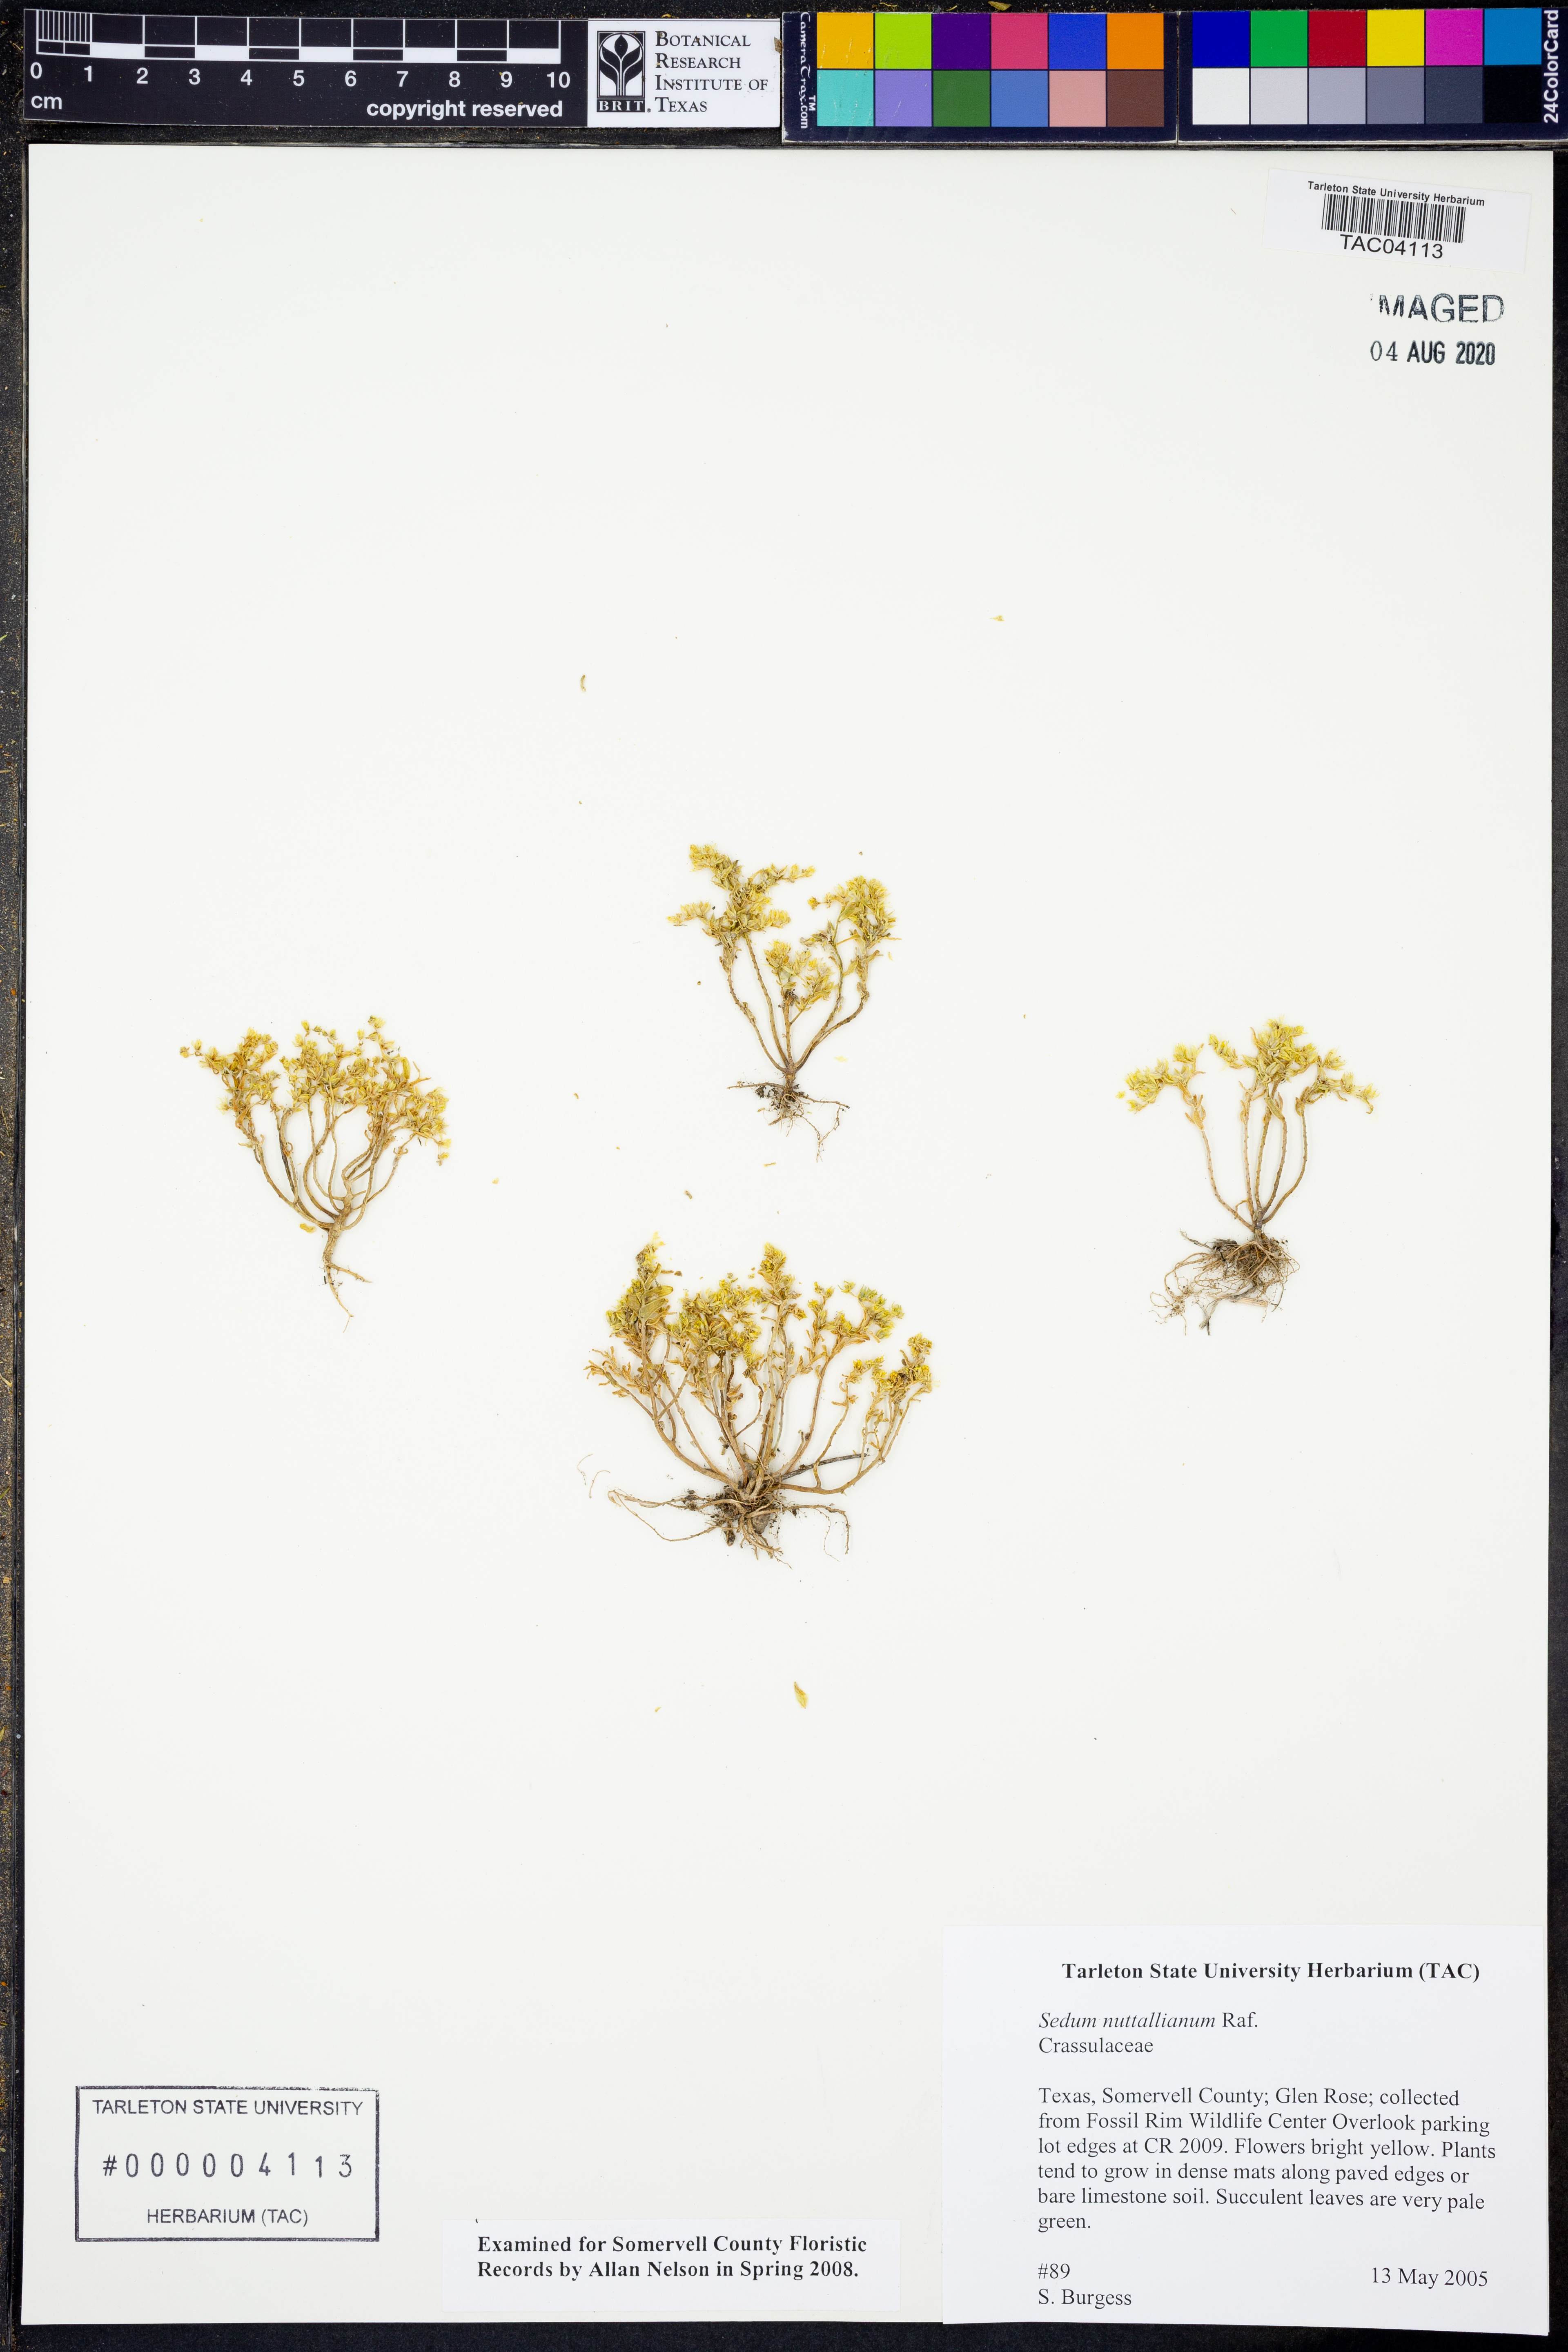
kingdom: Plantae
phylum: Tracheophyta
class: Magnoliopsida
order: Saxifragales
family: Crassulaceae
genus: Sedum
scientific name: Sedum nuttallii
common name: Yellow stonecrop
